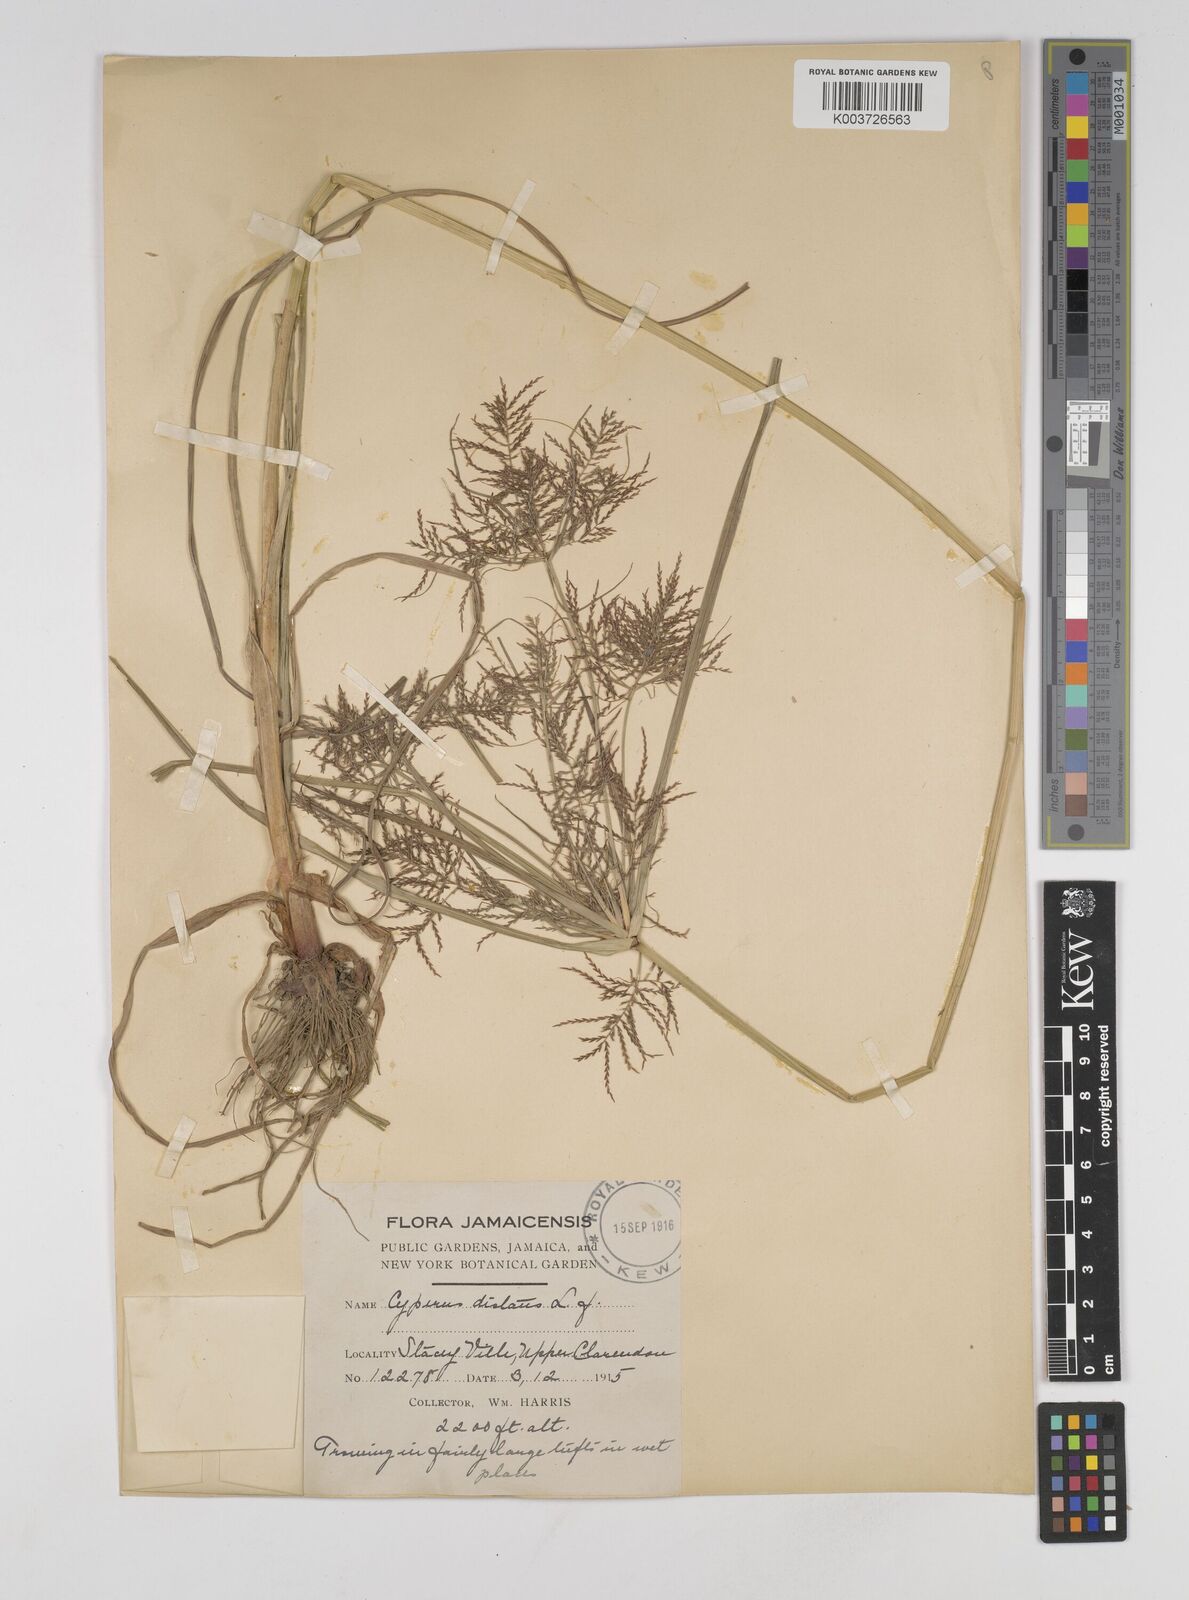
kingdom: Plantae
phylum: Tracheophyta
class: Liliopsida
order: Poales
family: Cyperaceae
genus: Cyperus
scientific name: Cyperus distans
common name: Slender cyperus
